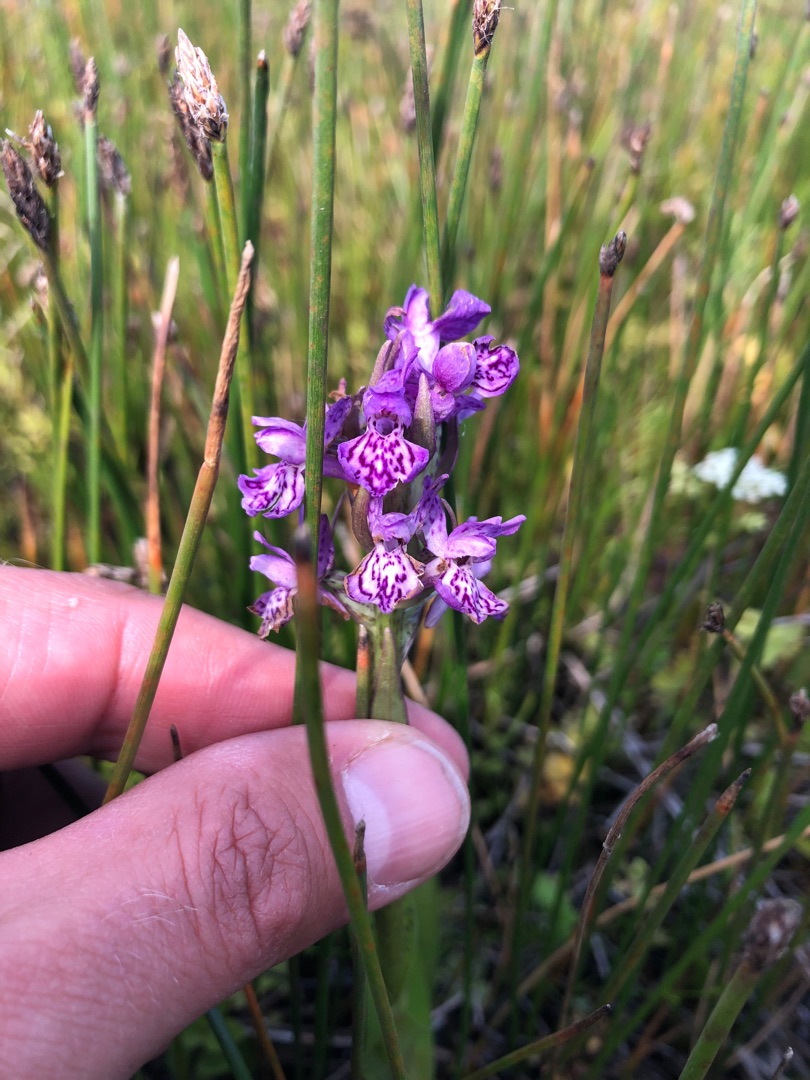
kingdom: Plantae
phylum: Tracheophyta
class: Liliopsida
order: Asparagales
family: Orchidaceae
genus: Dactylorhiza
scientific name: Dactylorhiza majalis
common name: Vendsyssel-gøgeurt
